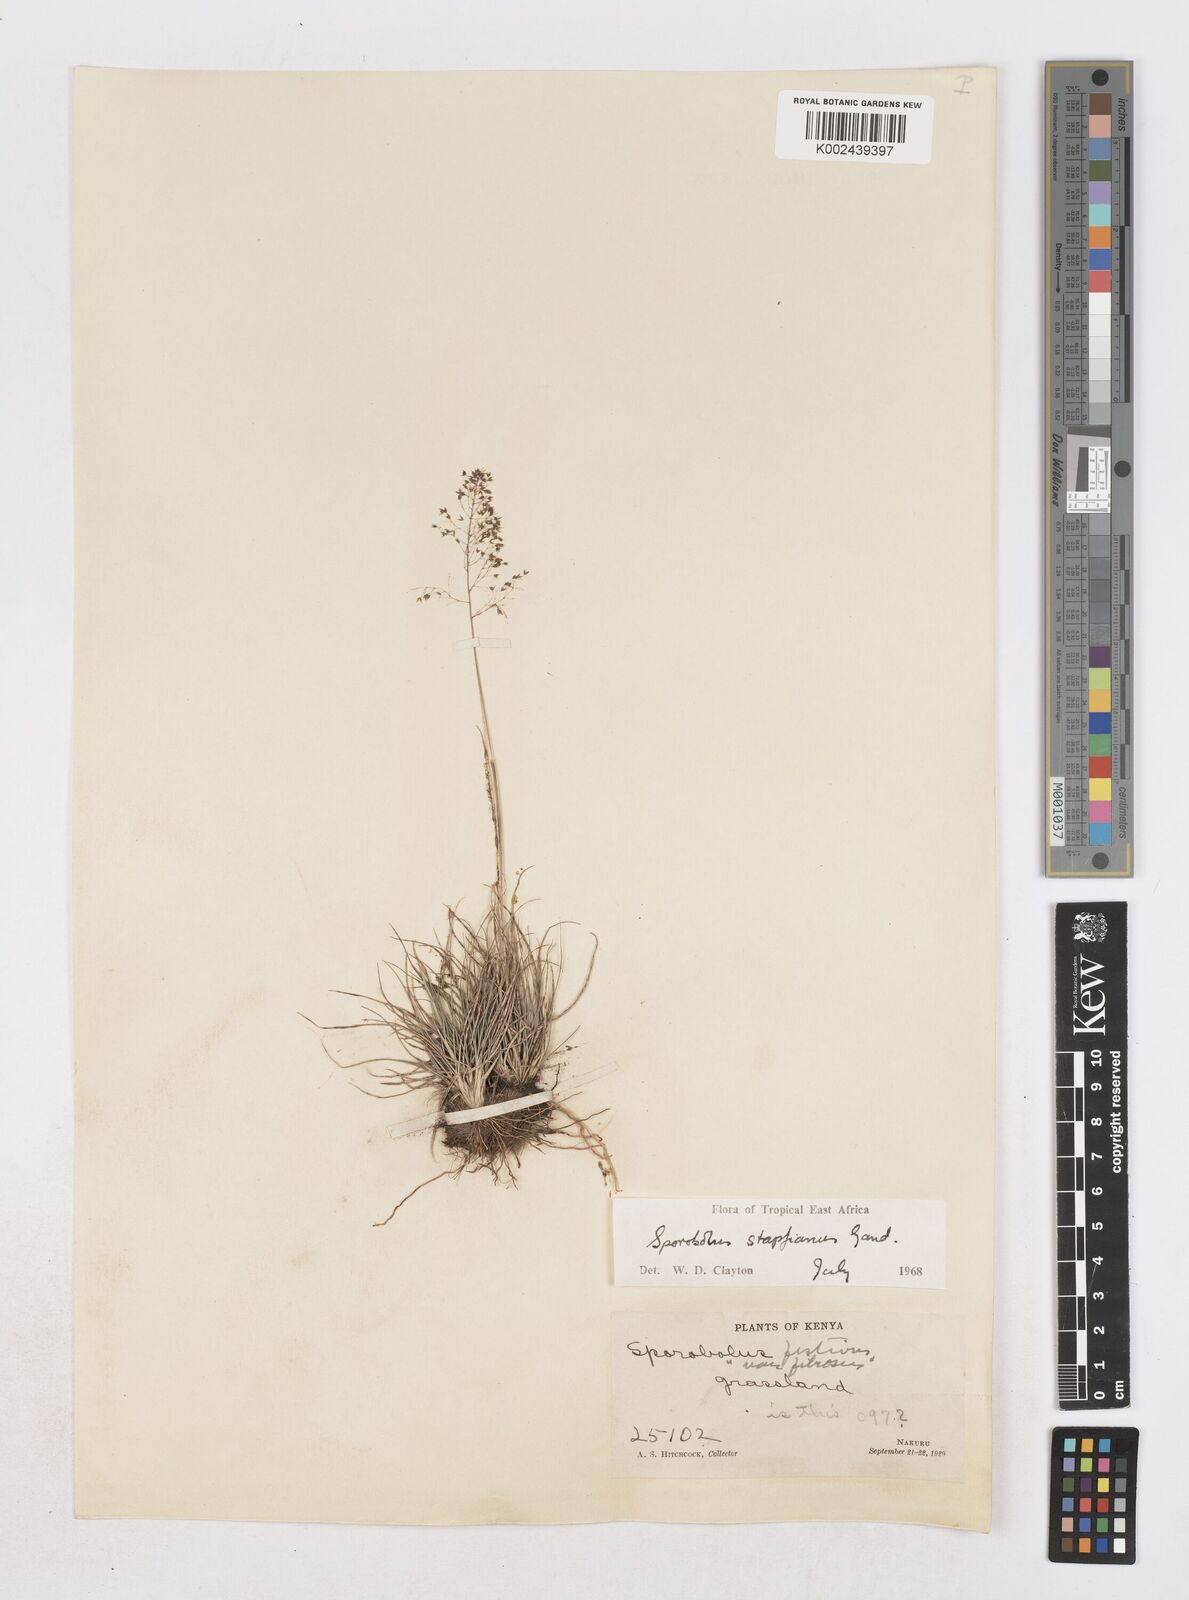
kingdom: Plantae
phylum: Tracheophyta
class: Liliopsida
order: Poales
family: Poaceae
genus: Sporobolus
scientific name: Sporobolus stapfianus
